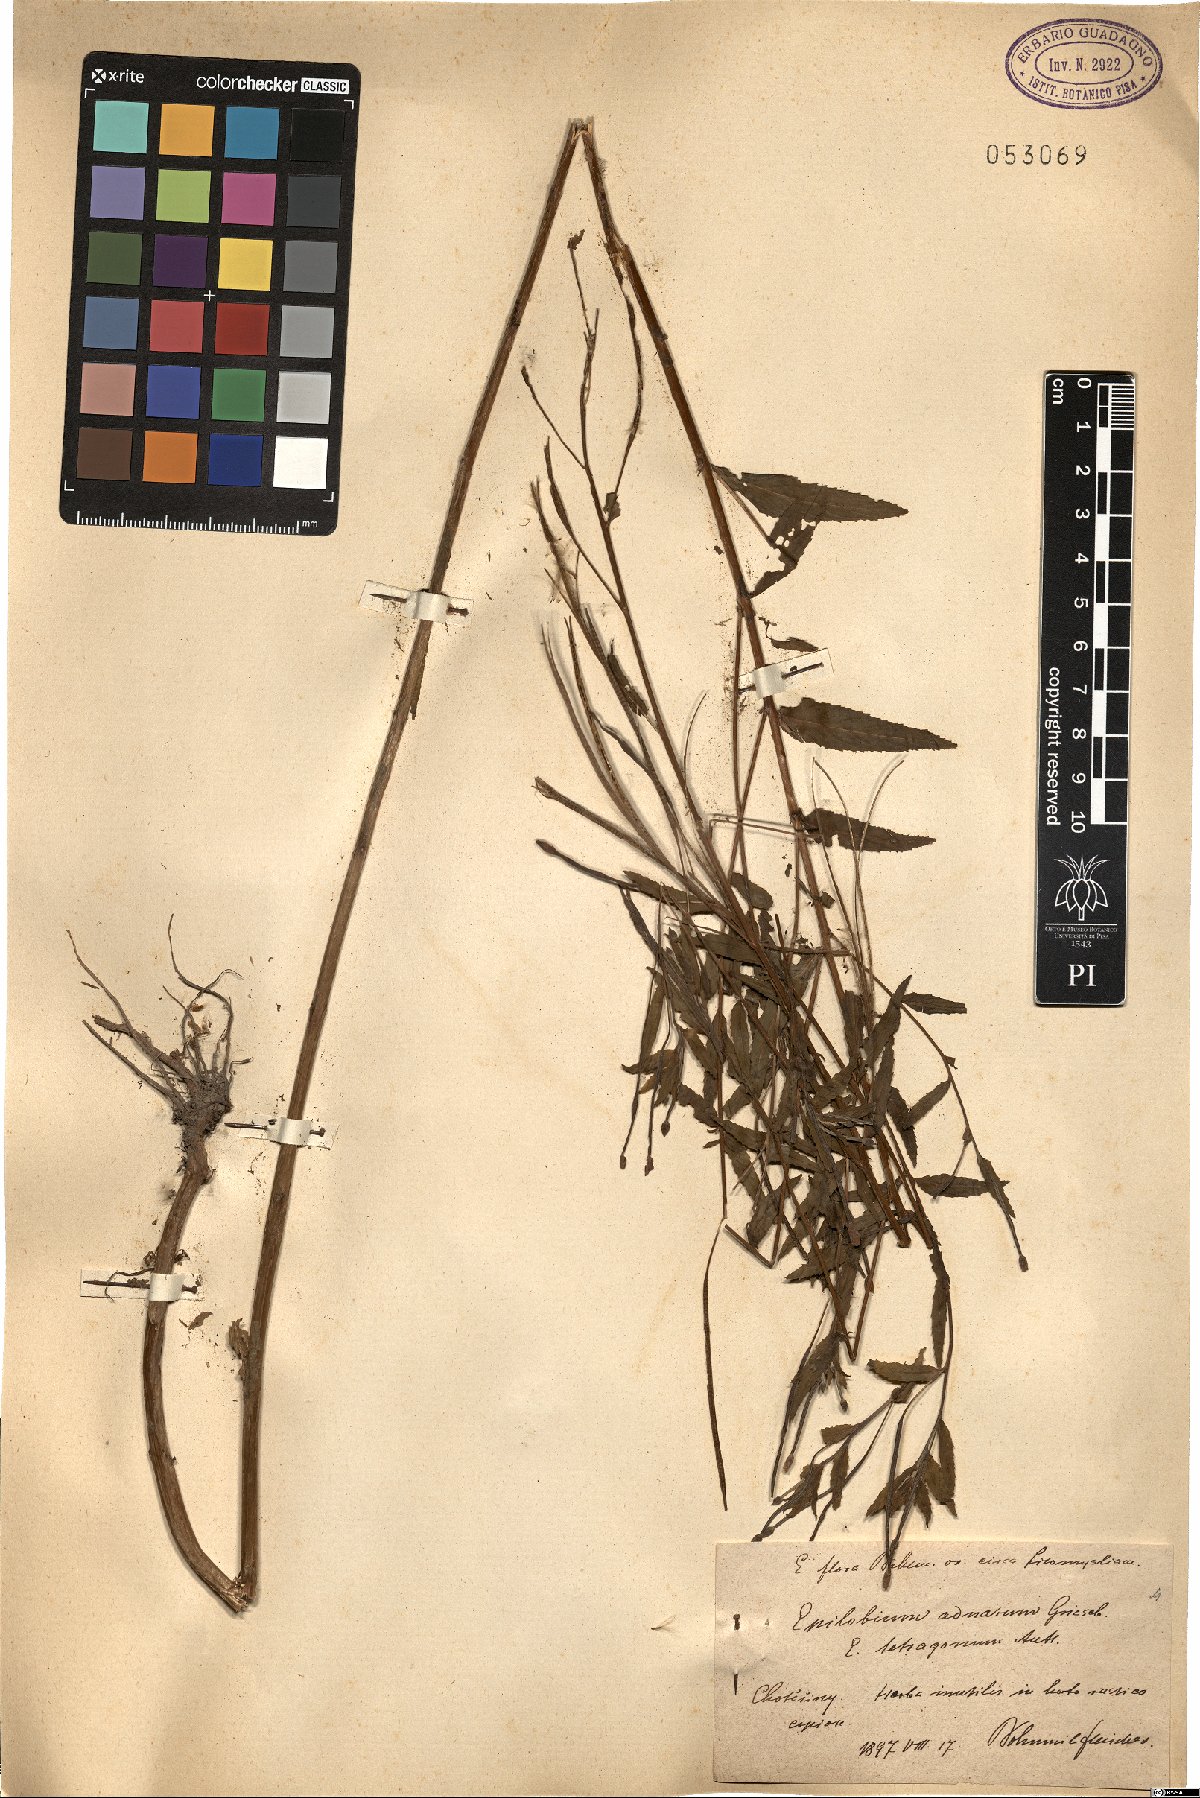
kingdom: Plantae
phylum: Tracheophyta
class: Magnoliopsida
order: Myrtales
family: Onagraceae
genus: Epilobium
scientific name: Epilobium tetragonum
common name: Square-stemmed willowherb
